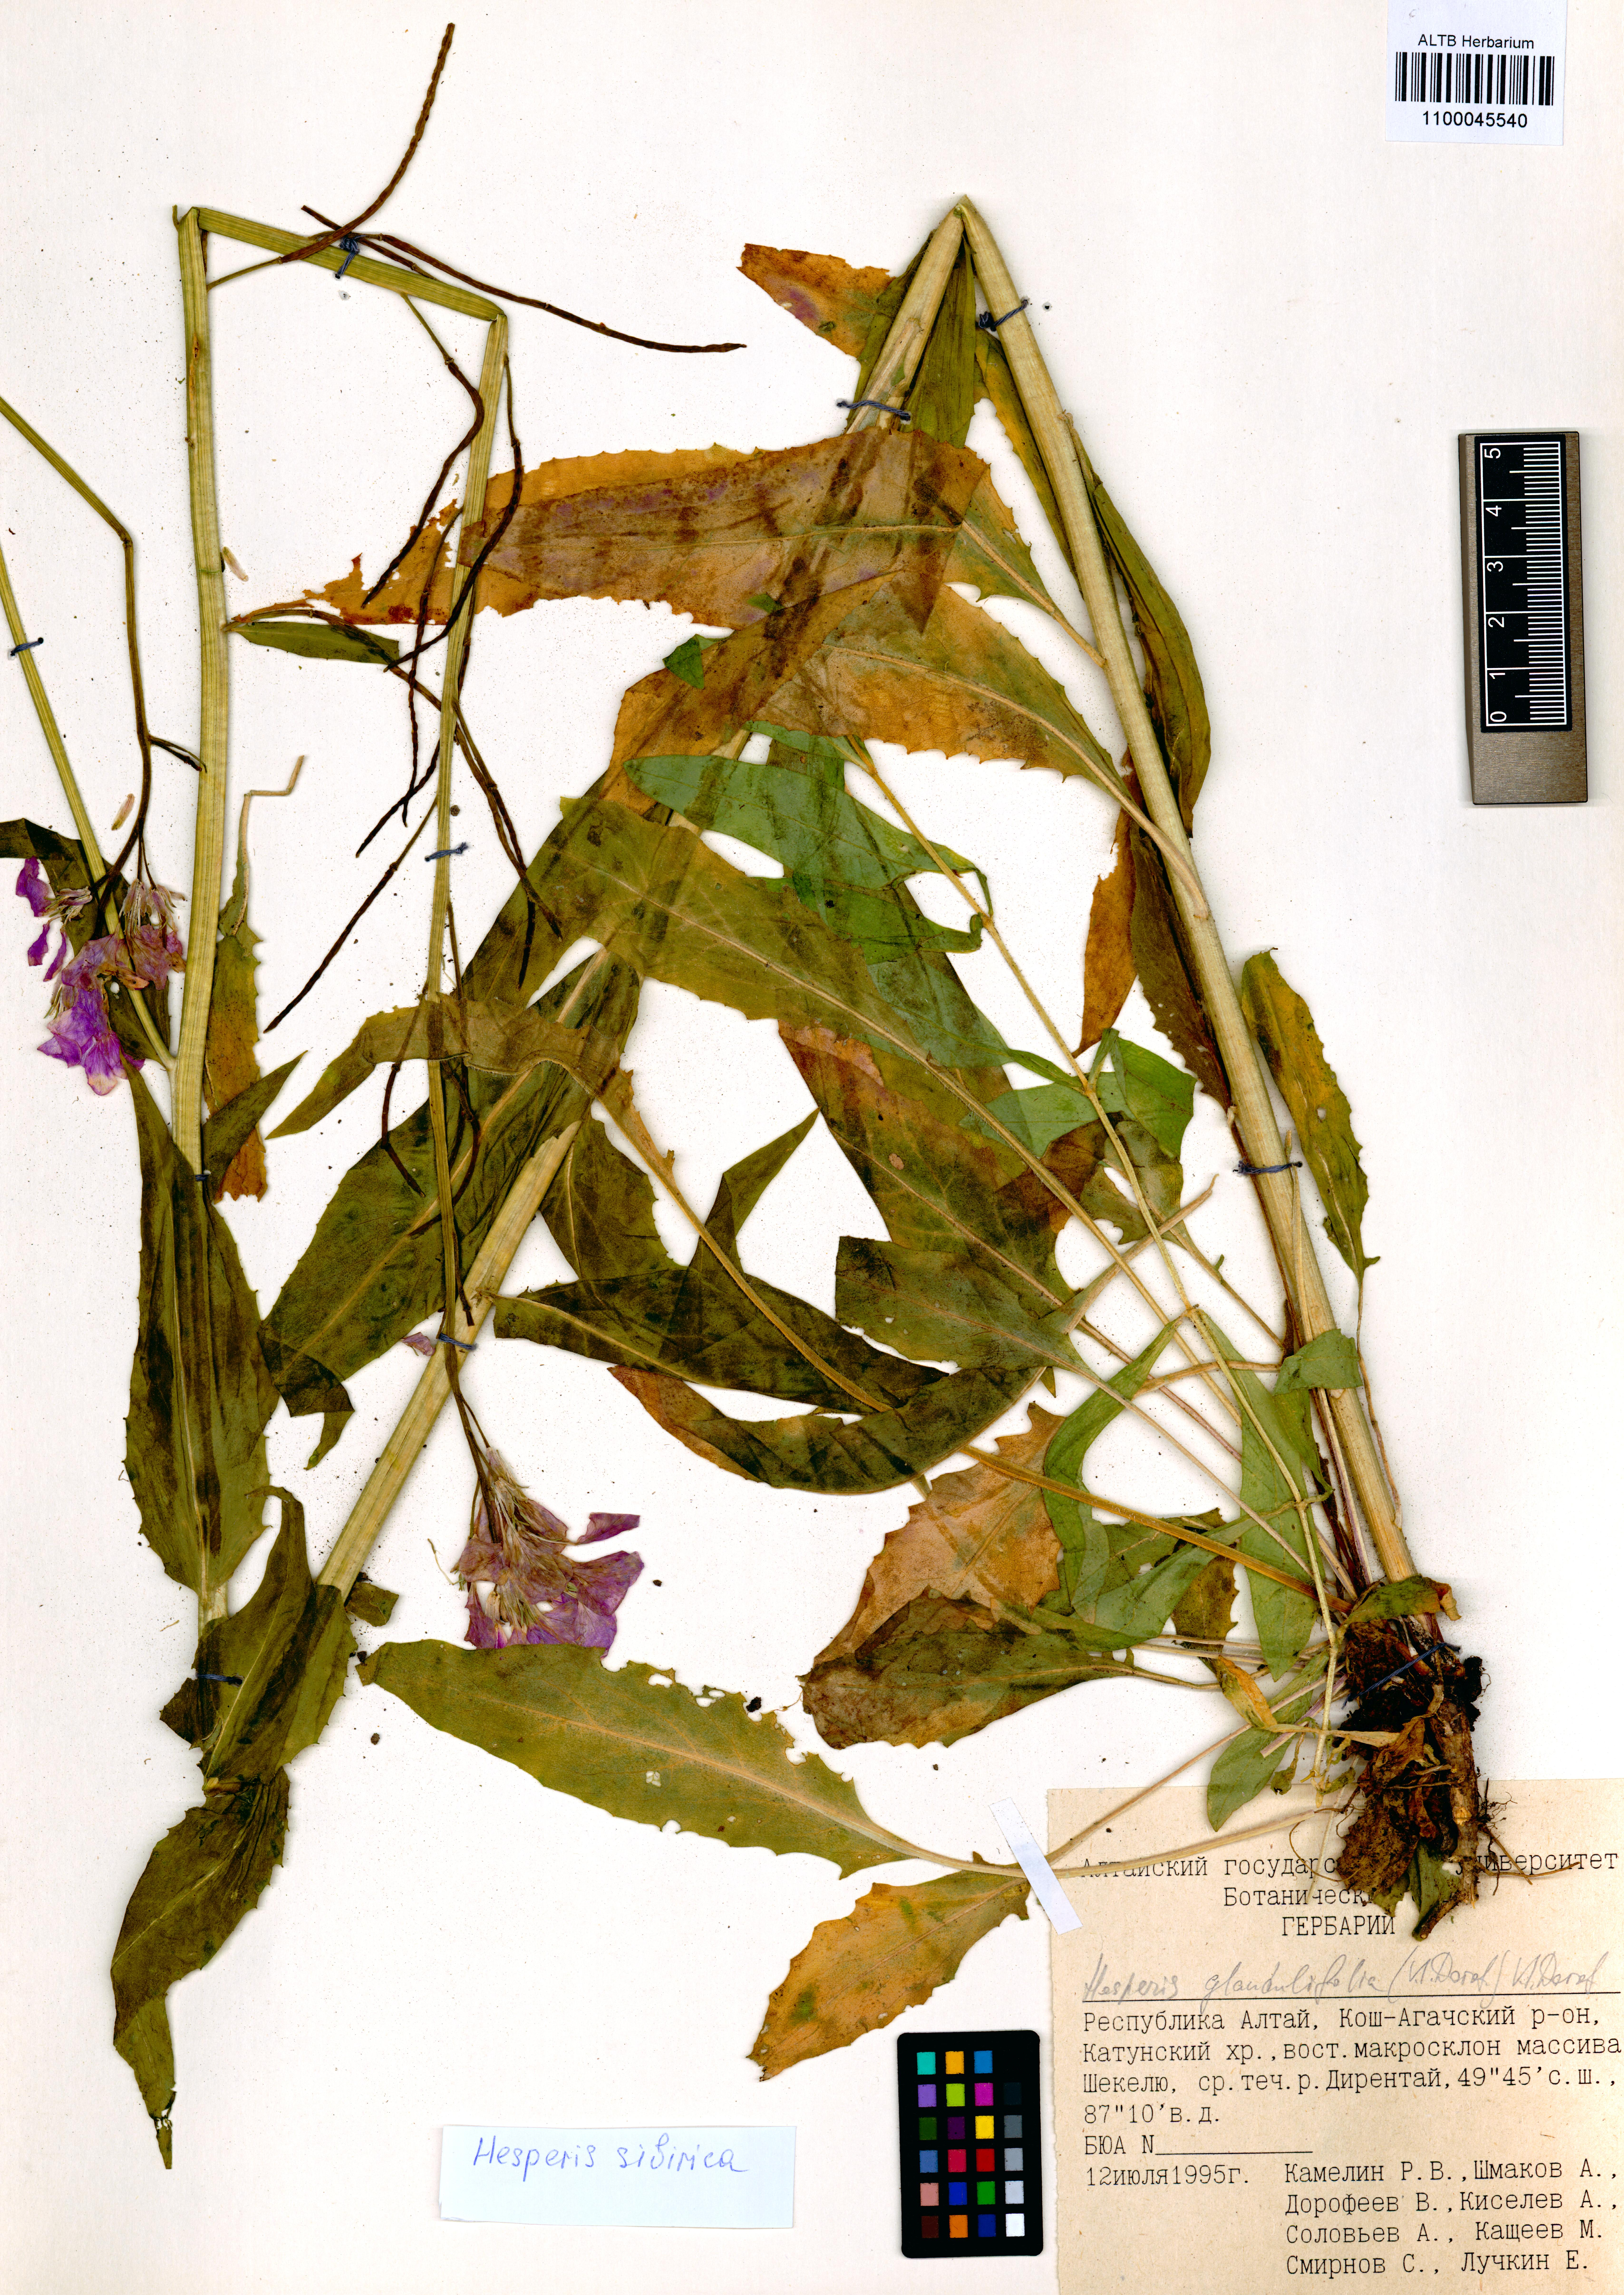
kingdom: Plantae
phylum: Tracheophyta
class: Magnoliopsida
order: Brassicales
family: Brassicaceae
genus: Hesperis
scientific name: Hesperis sibirica
